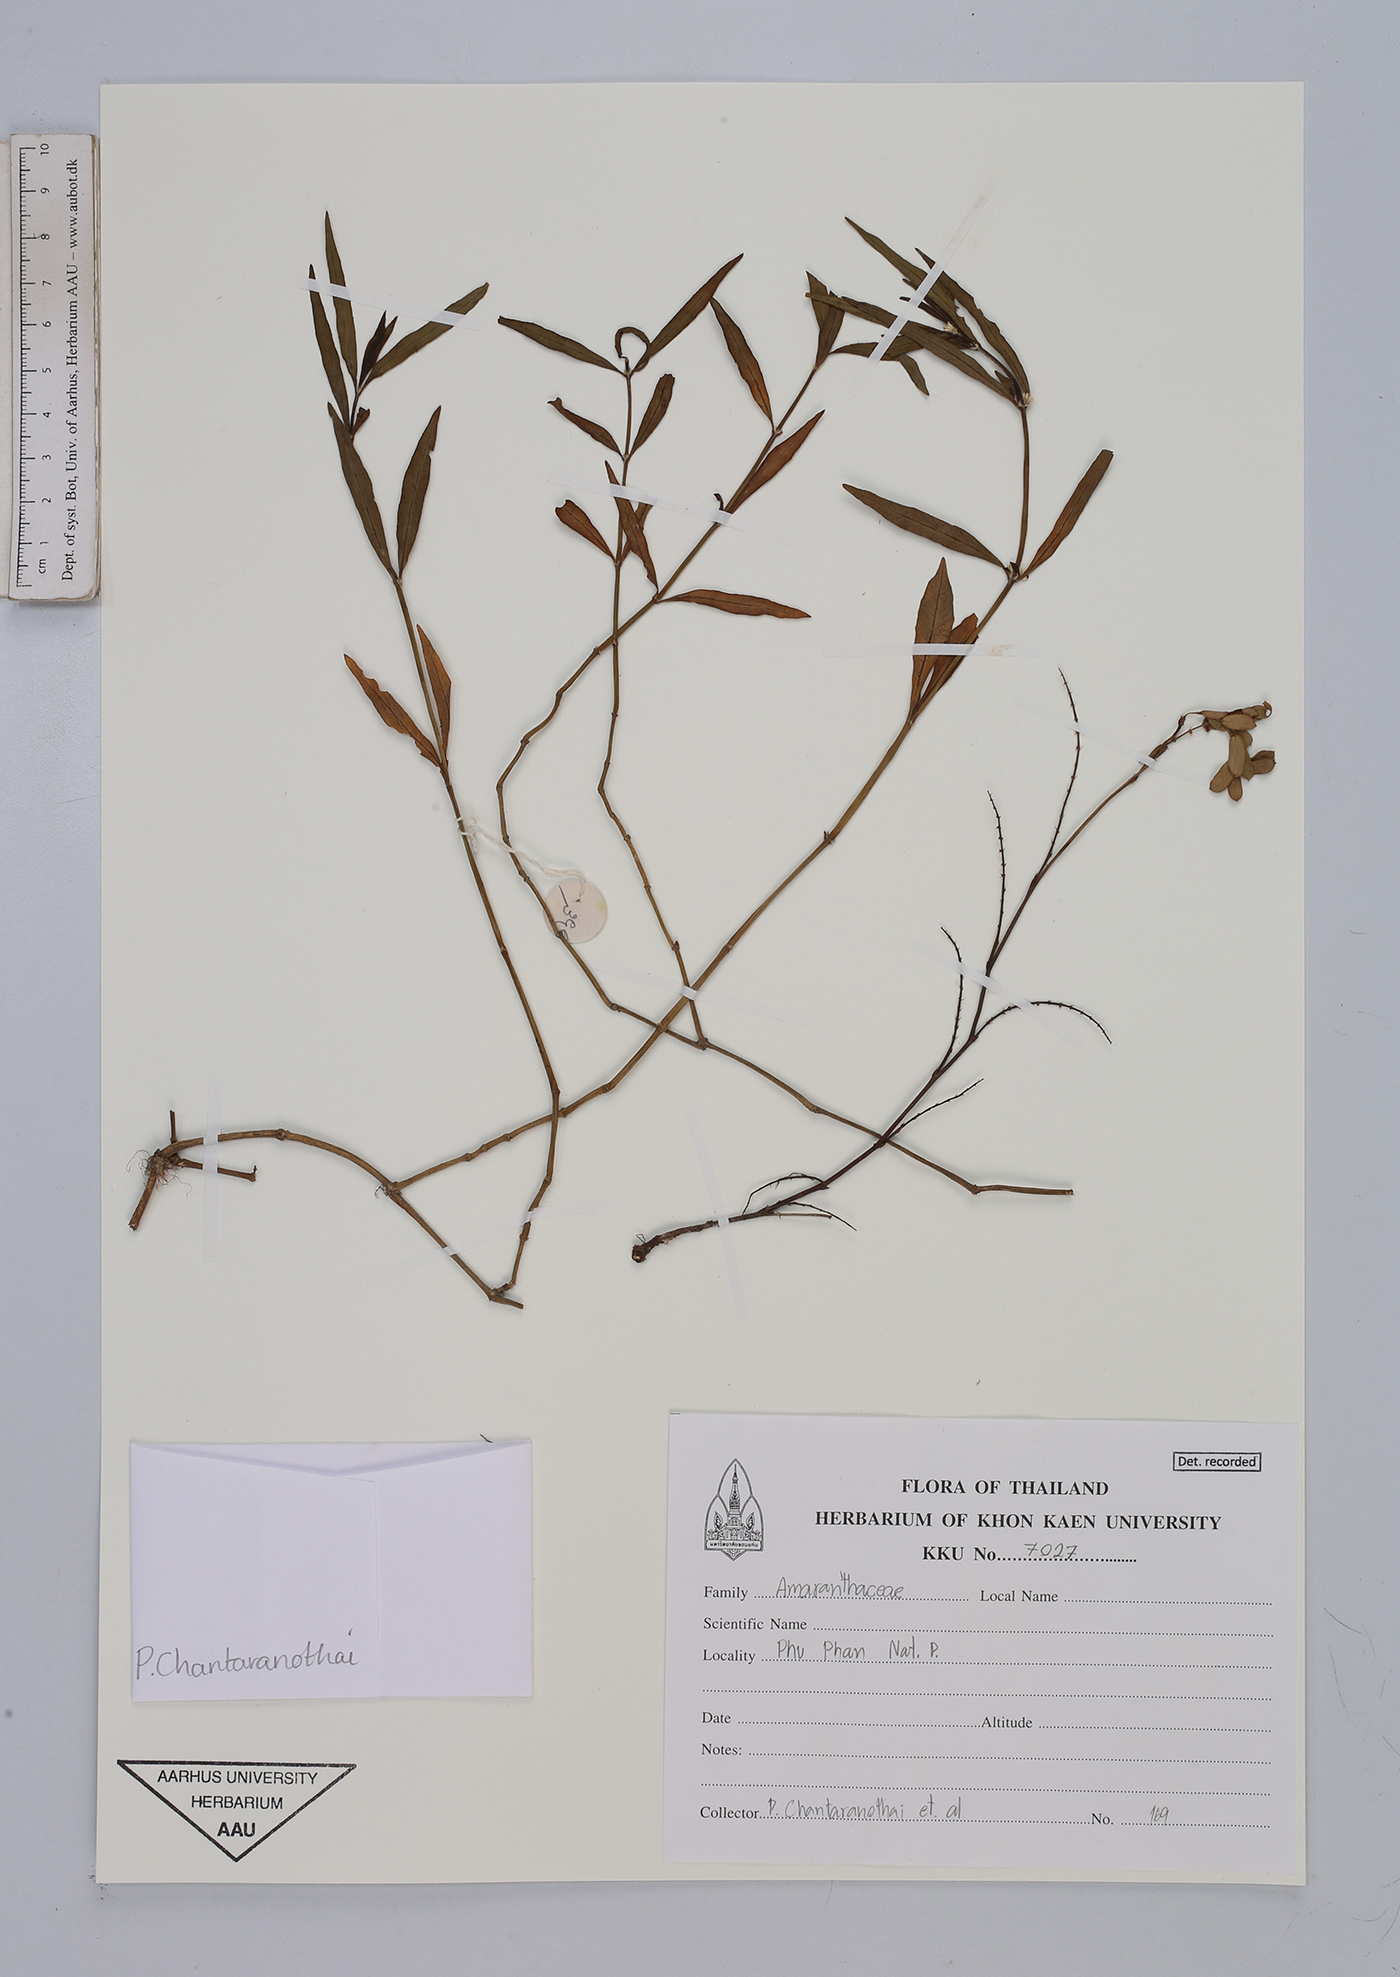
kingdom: Plantae
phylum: Tracheophyta
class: Magnoliopsida
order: Caryophyllales
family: Amaranthaceae
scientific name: Amaranthaceae
